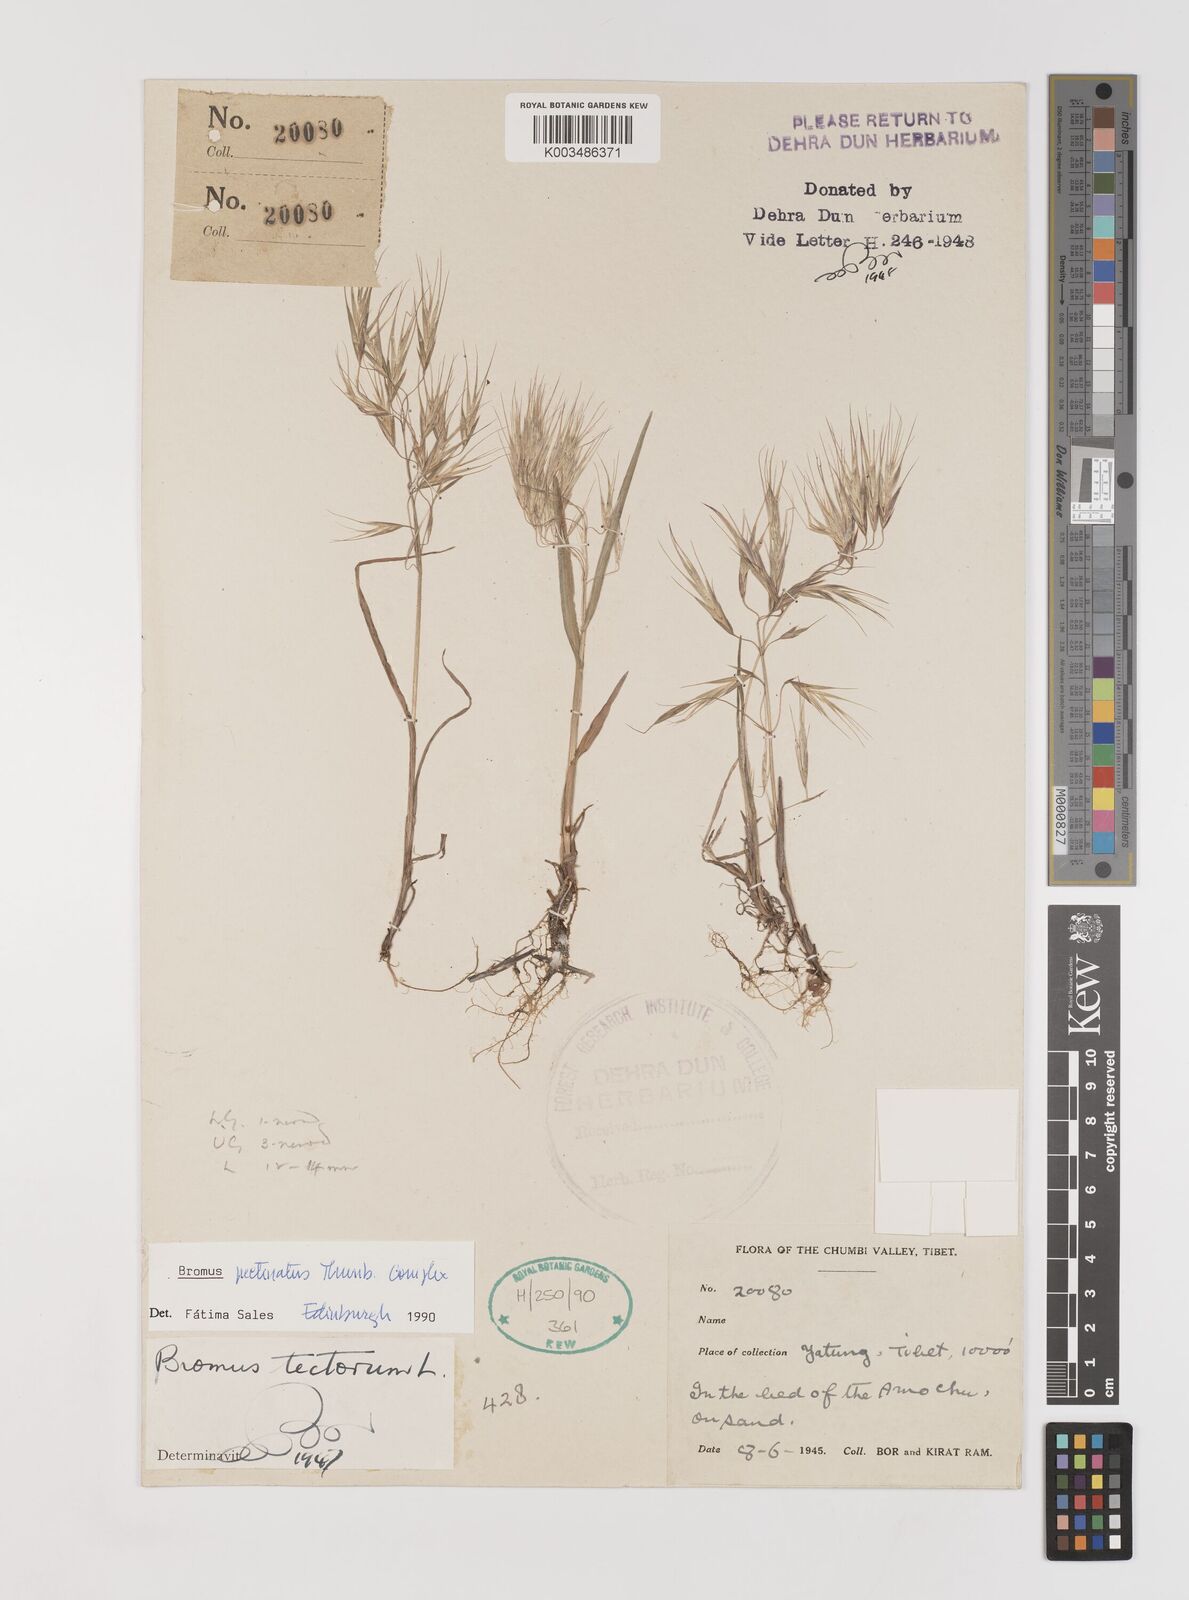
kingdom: Plantae
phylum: Tracheophyta
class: Liliopsida
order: Poales
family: Poaceae
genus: Bromus
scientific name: Bromus leptoclados
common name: Mountain bromegrass
